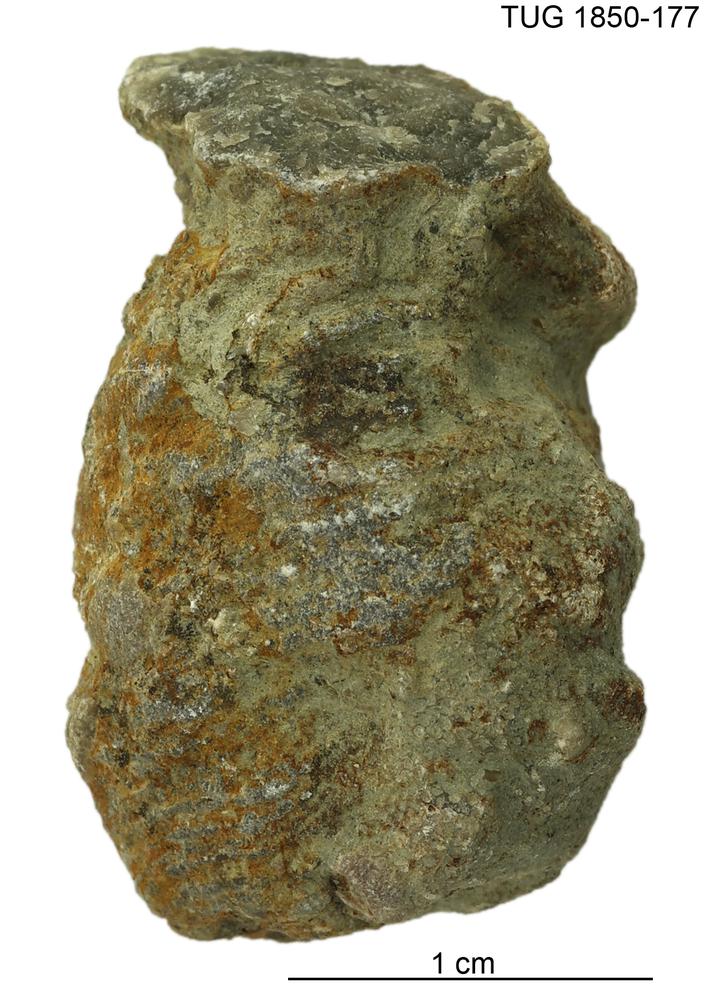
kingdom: Animalia
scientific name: Animalia
